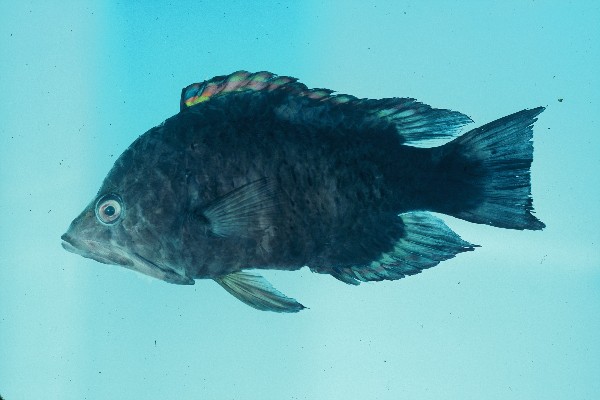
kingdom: Animalia
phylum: Chordata
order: Perciformes
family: Labridae
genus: Epibulus
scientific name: Epibulus insidiator
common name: Slingjaw wrasse
